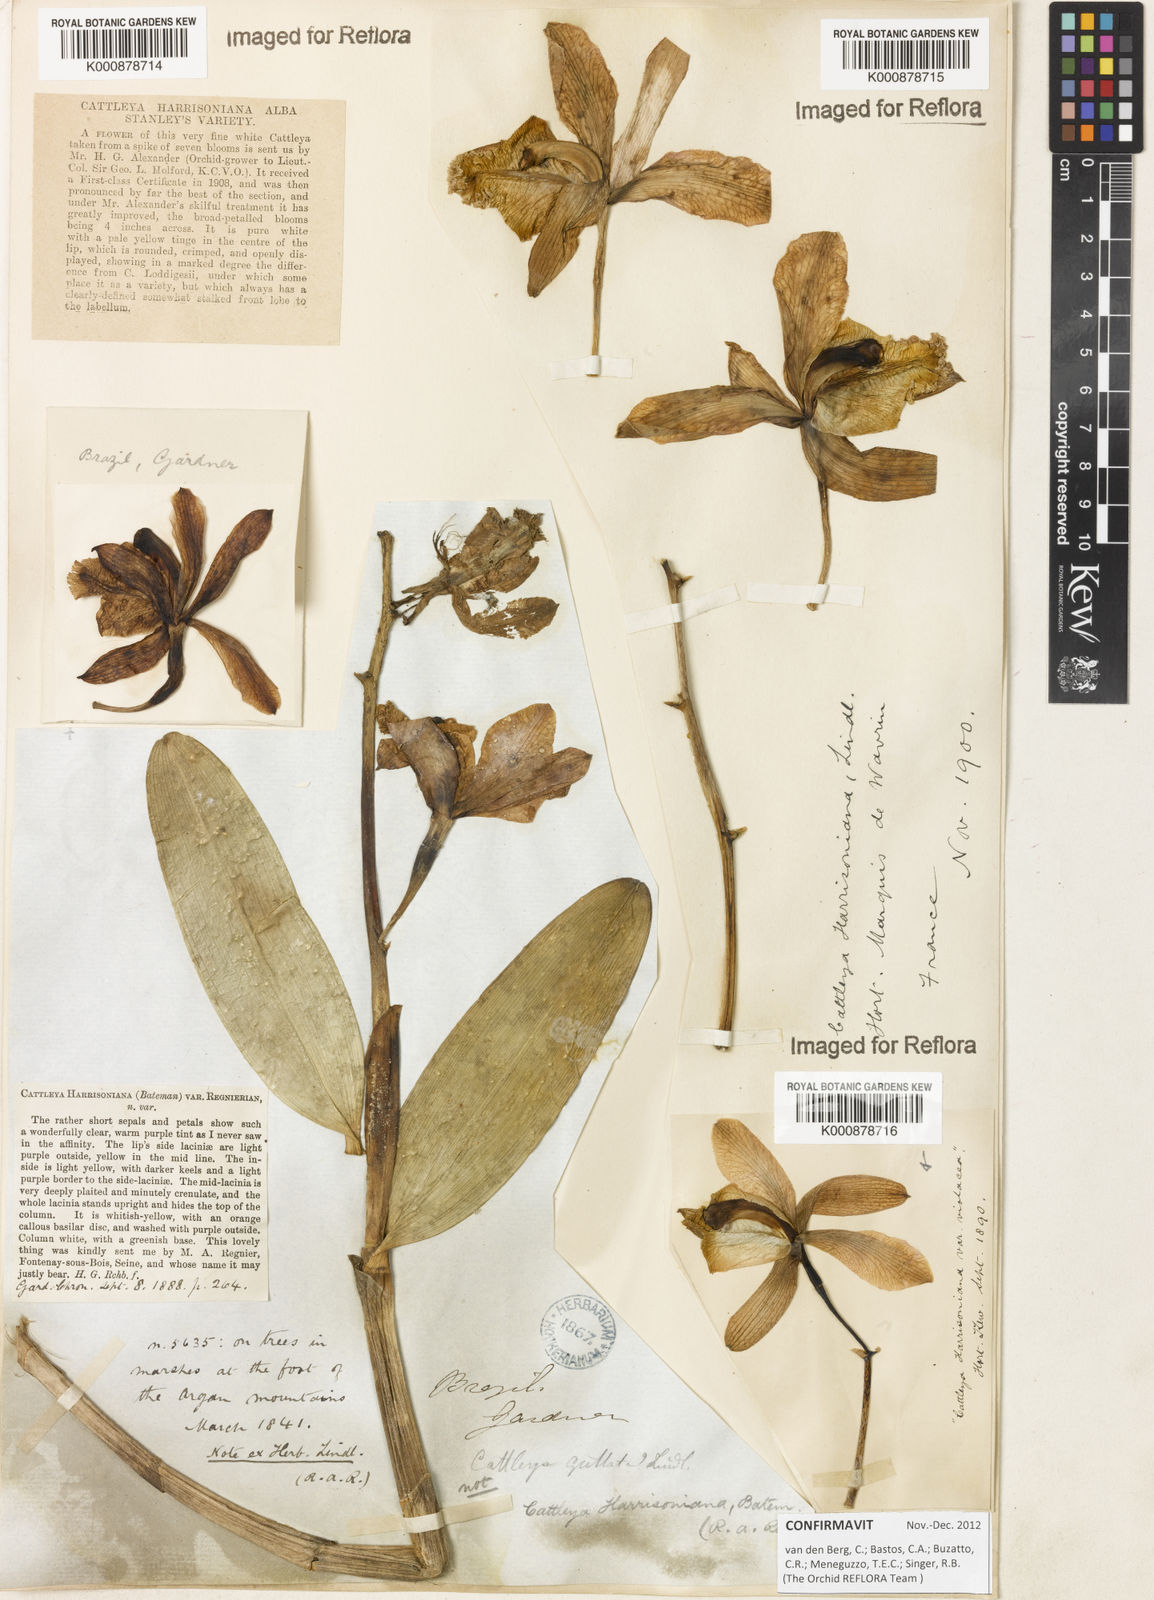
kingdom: Plantae
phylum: Tracheophyta
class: Liliopsida
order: Asparagales
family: Orchidaceae
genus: Cattleya
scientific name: Cattleya harrisoniana
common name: Harrison's cattleya
